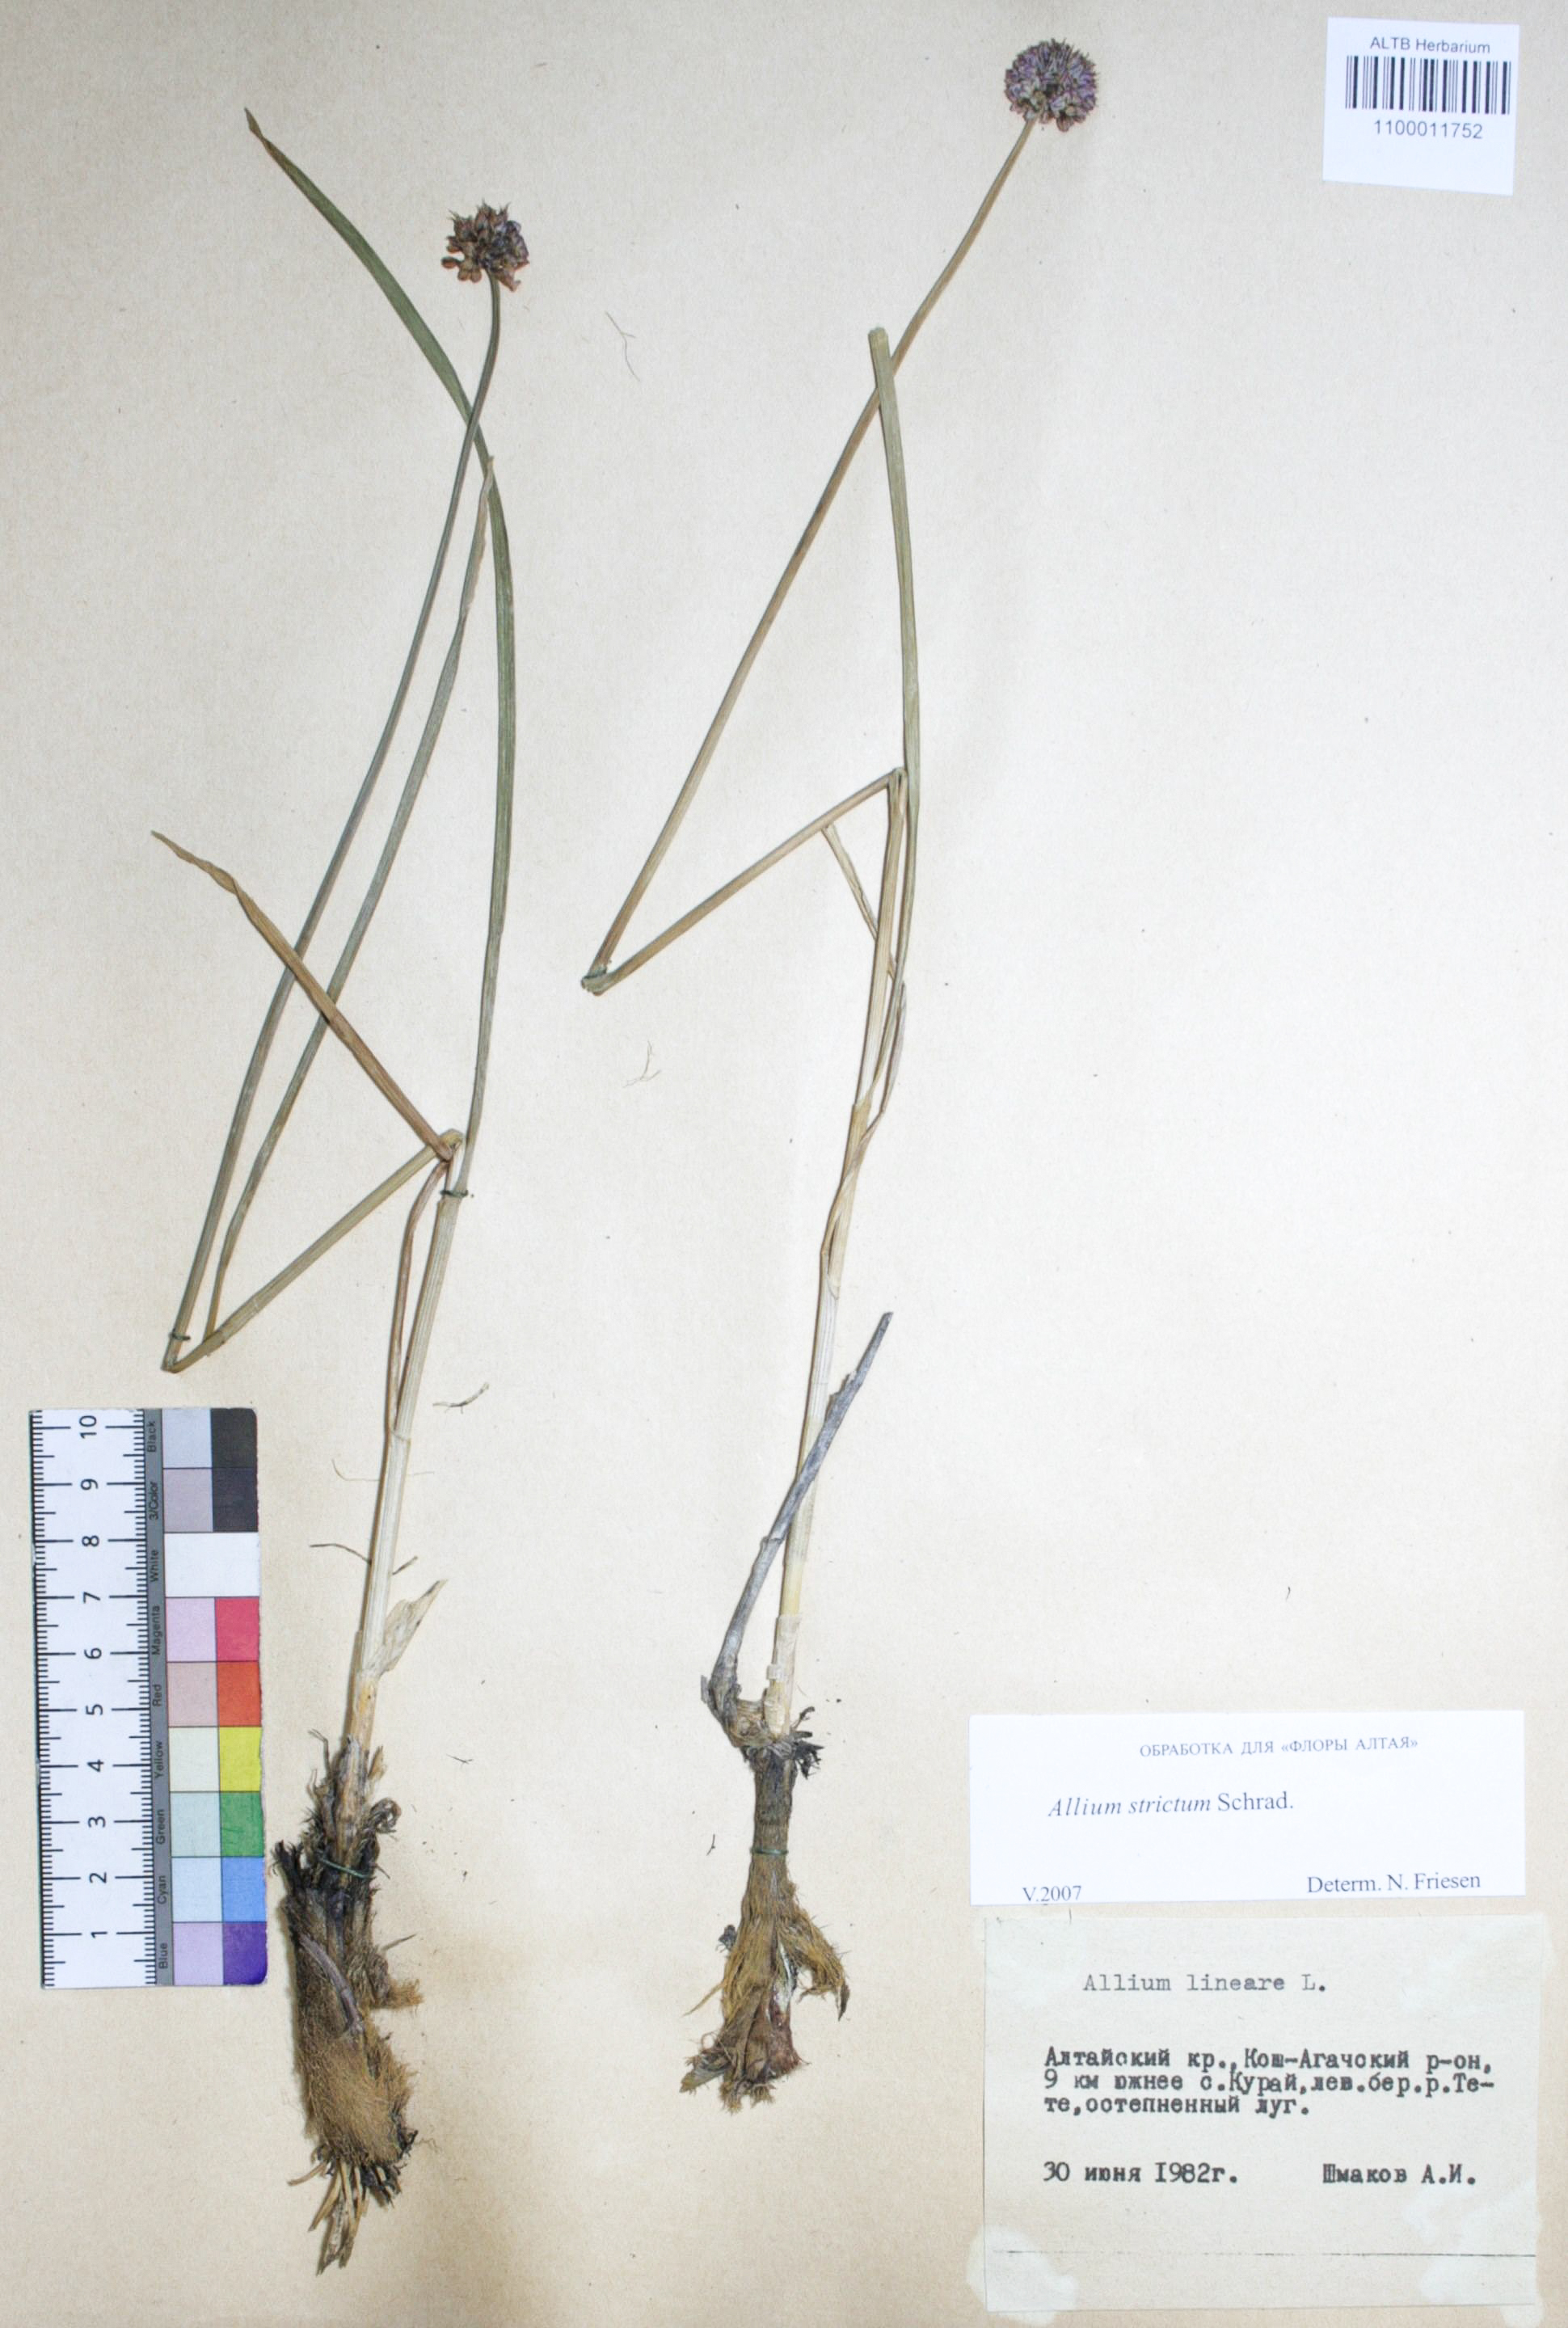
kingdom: Plantae
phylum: Tracheophyta
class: Liliopsida
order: Asparagales
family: Amaryllidaceae
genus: Allium
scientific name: Allium lineare
